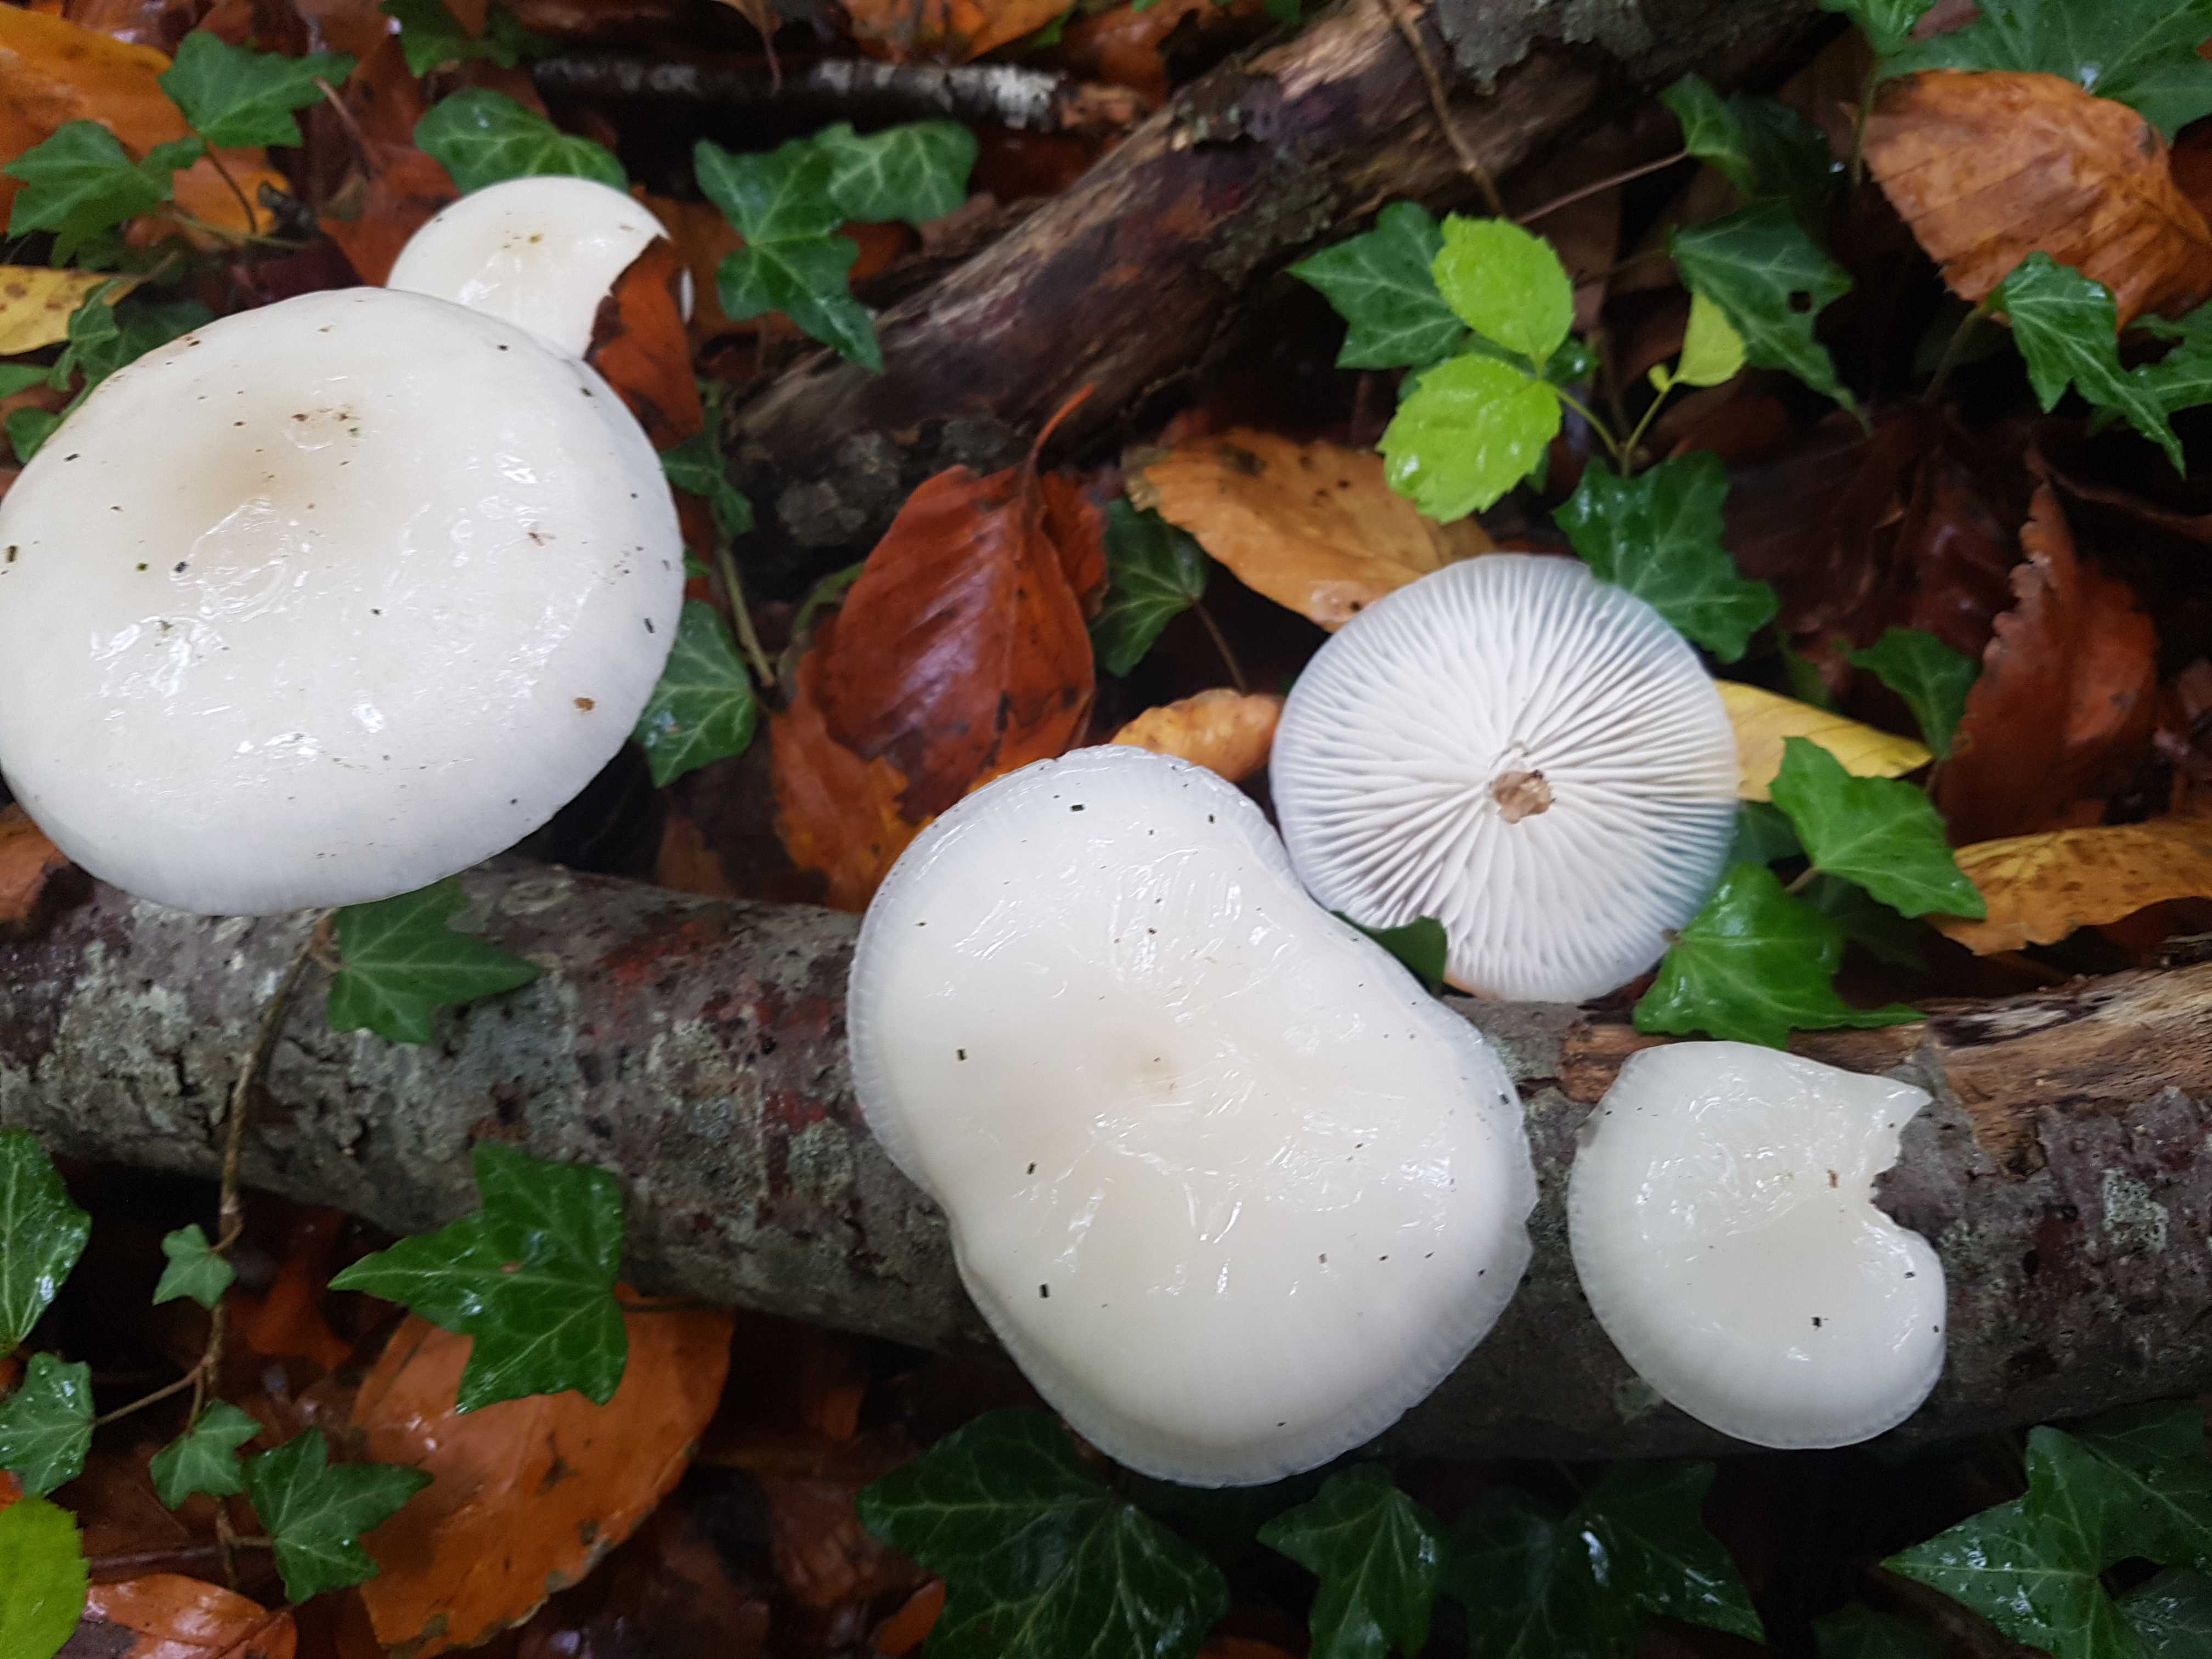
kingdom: Fungi
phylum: Basidiomycota
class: Agaricomycetes
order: Agaricales
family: Physalacriaceae
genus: Mucidula
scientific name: Mucidula mucida
